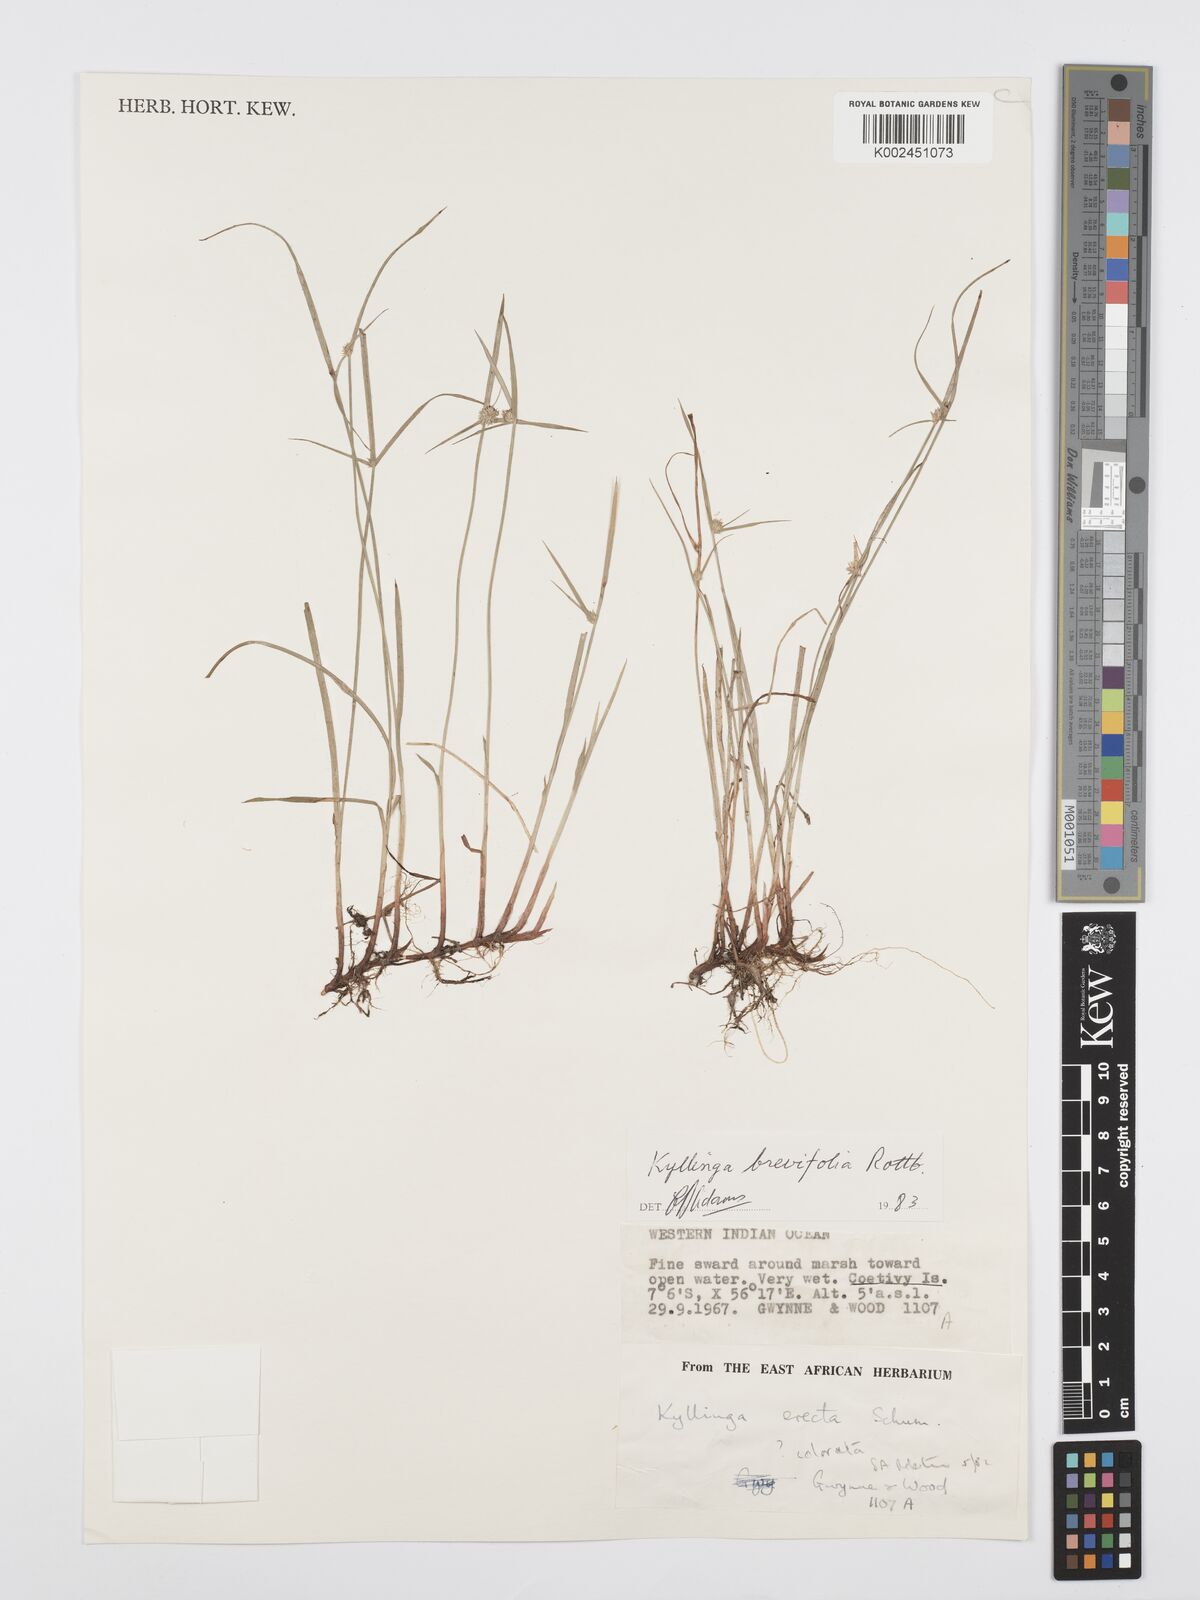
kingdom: Plantae
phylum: Tracheophyta
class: Liliopsida
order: Poales
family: Cyperaceae
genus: Cyperus
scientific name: Cyperus brevifolius
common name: Globe kyllinga
